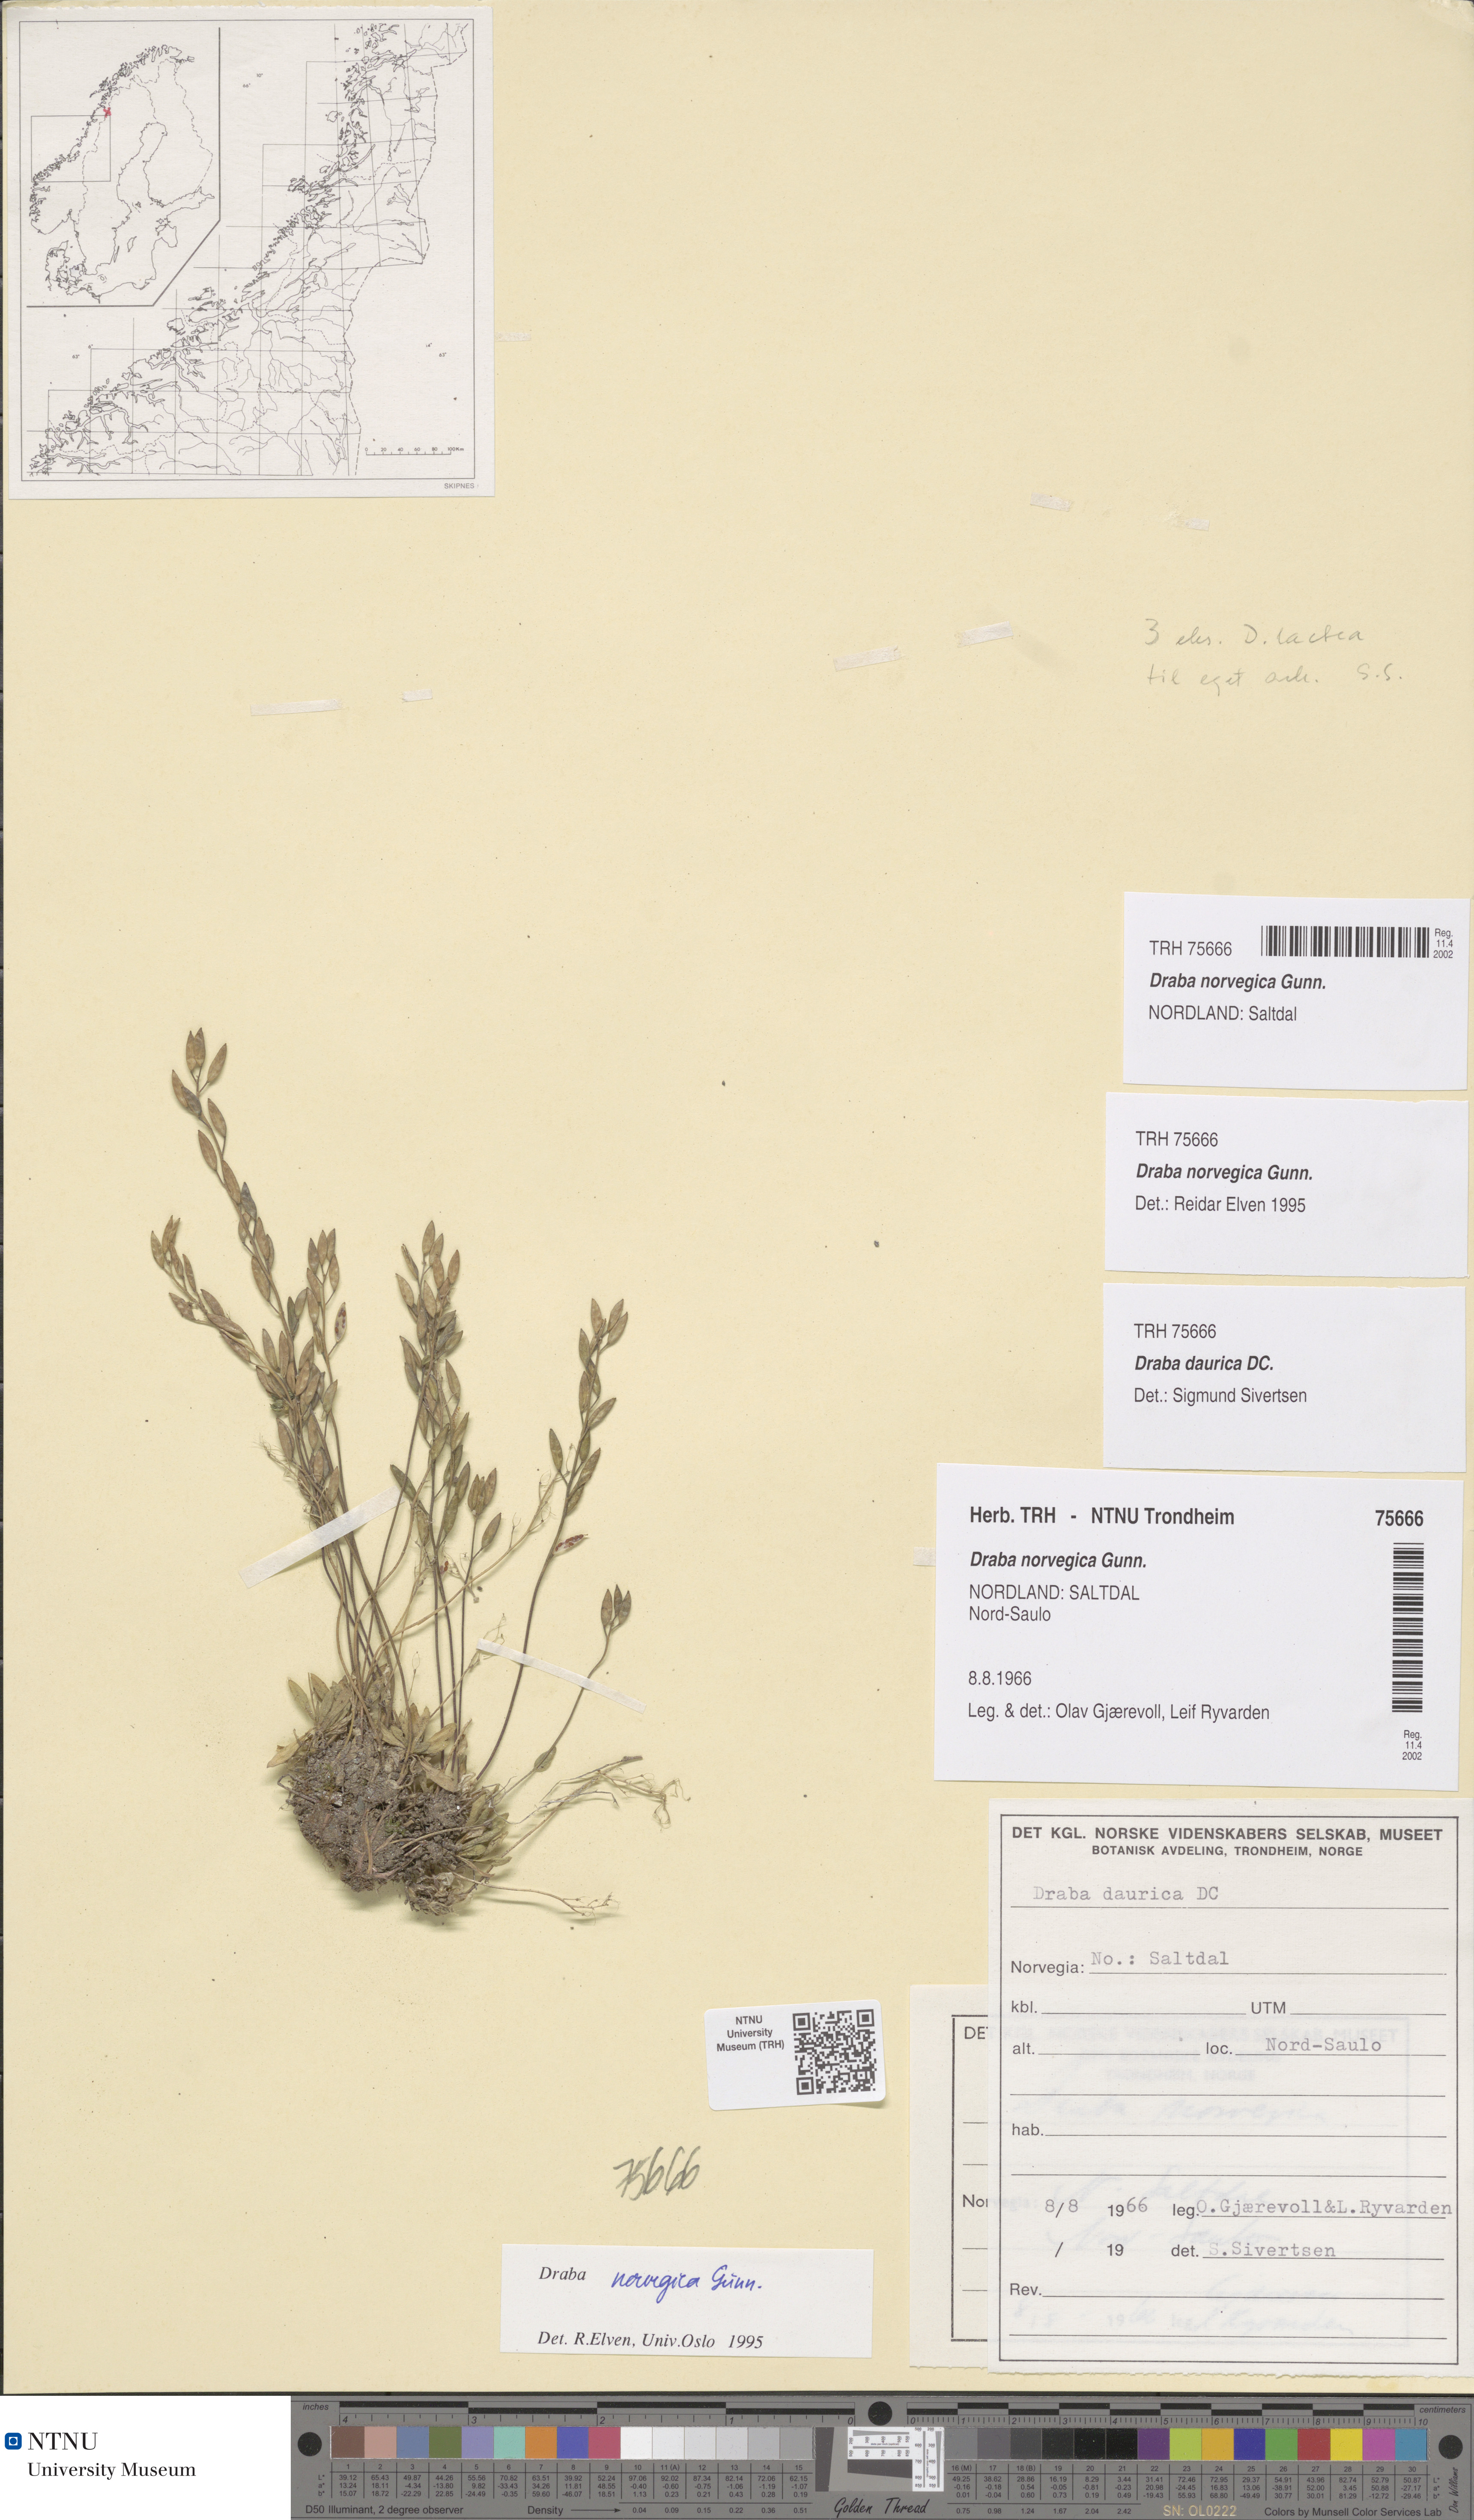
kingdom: Plantae
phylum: Tracheophyta
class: Magnoliopsida
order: Brassicales
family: Brassicaceae
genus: Draba
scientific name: Draba norvegica
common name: Rock whitlowgrass
